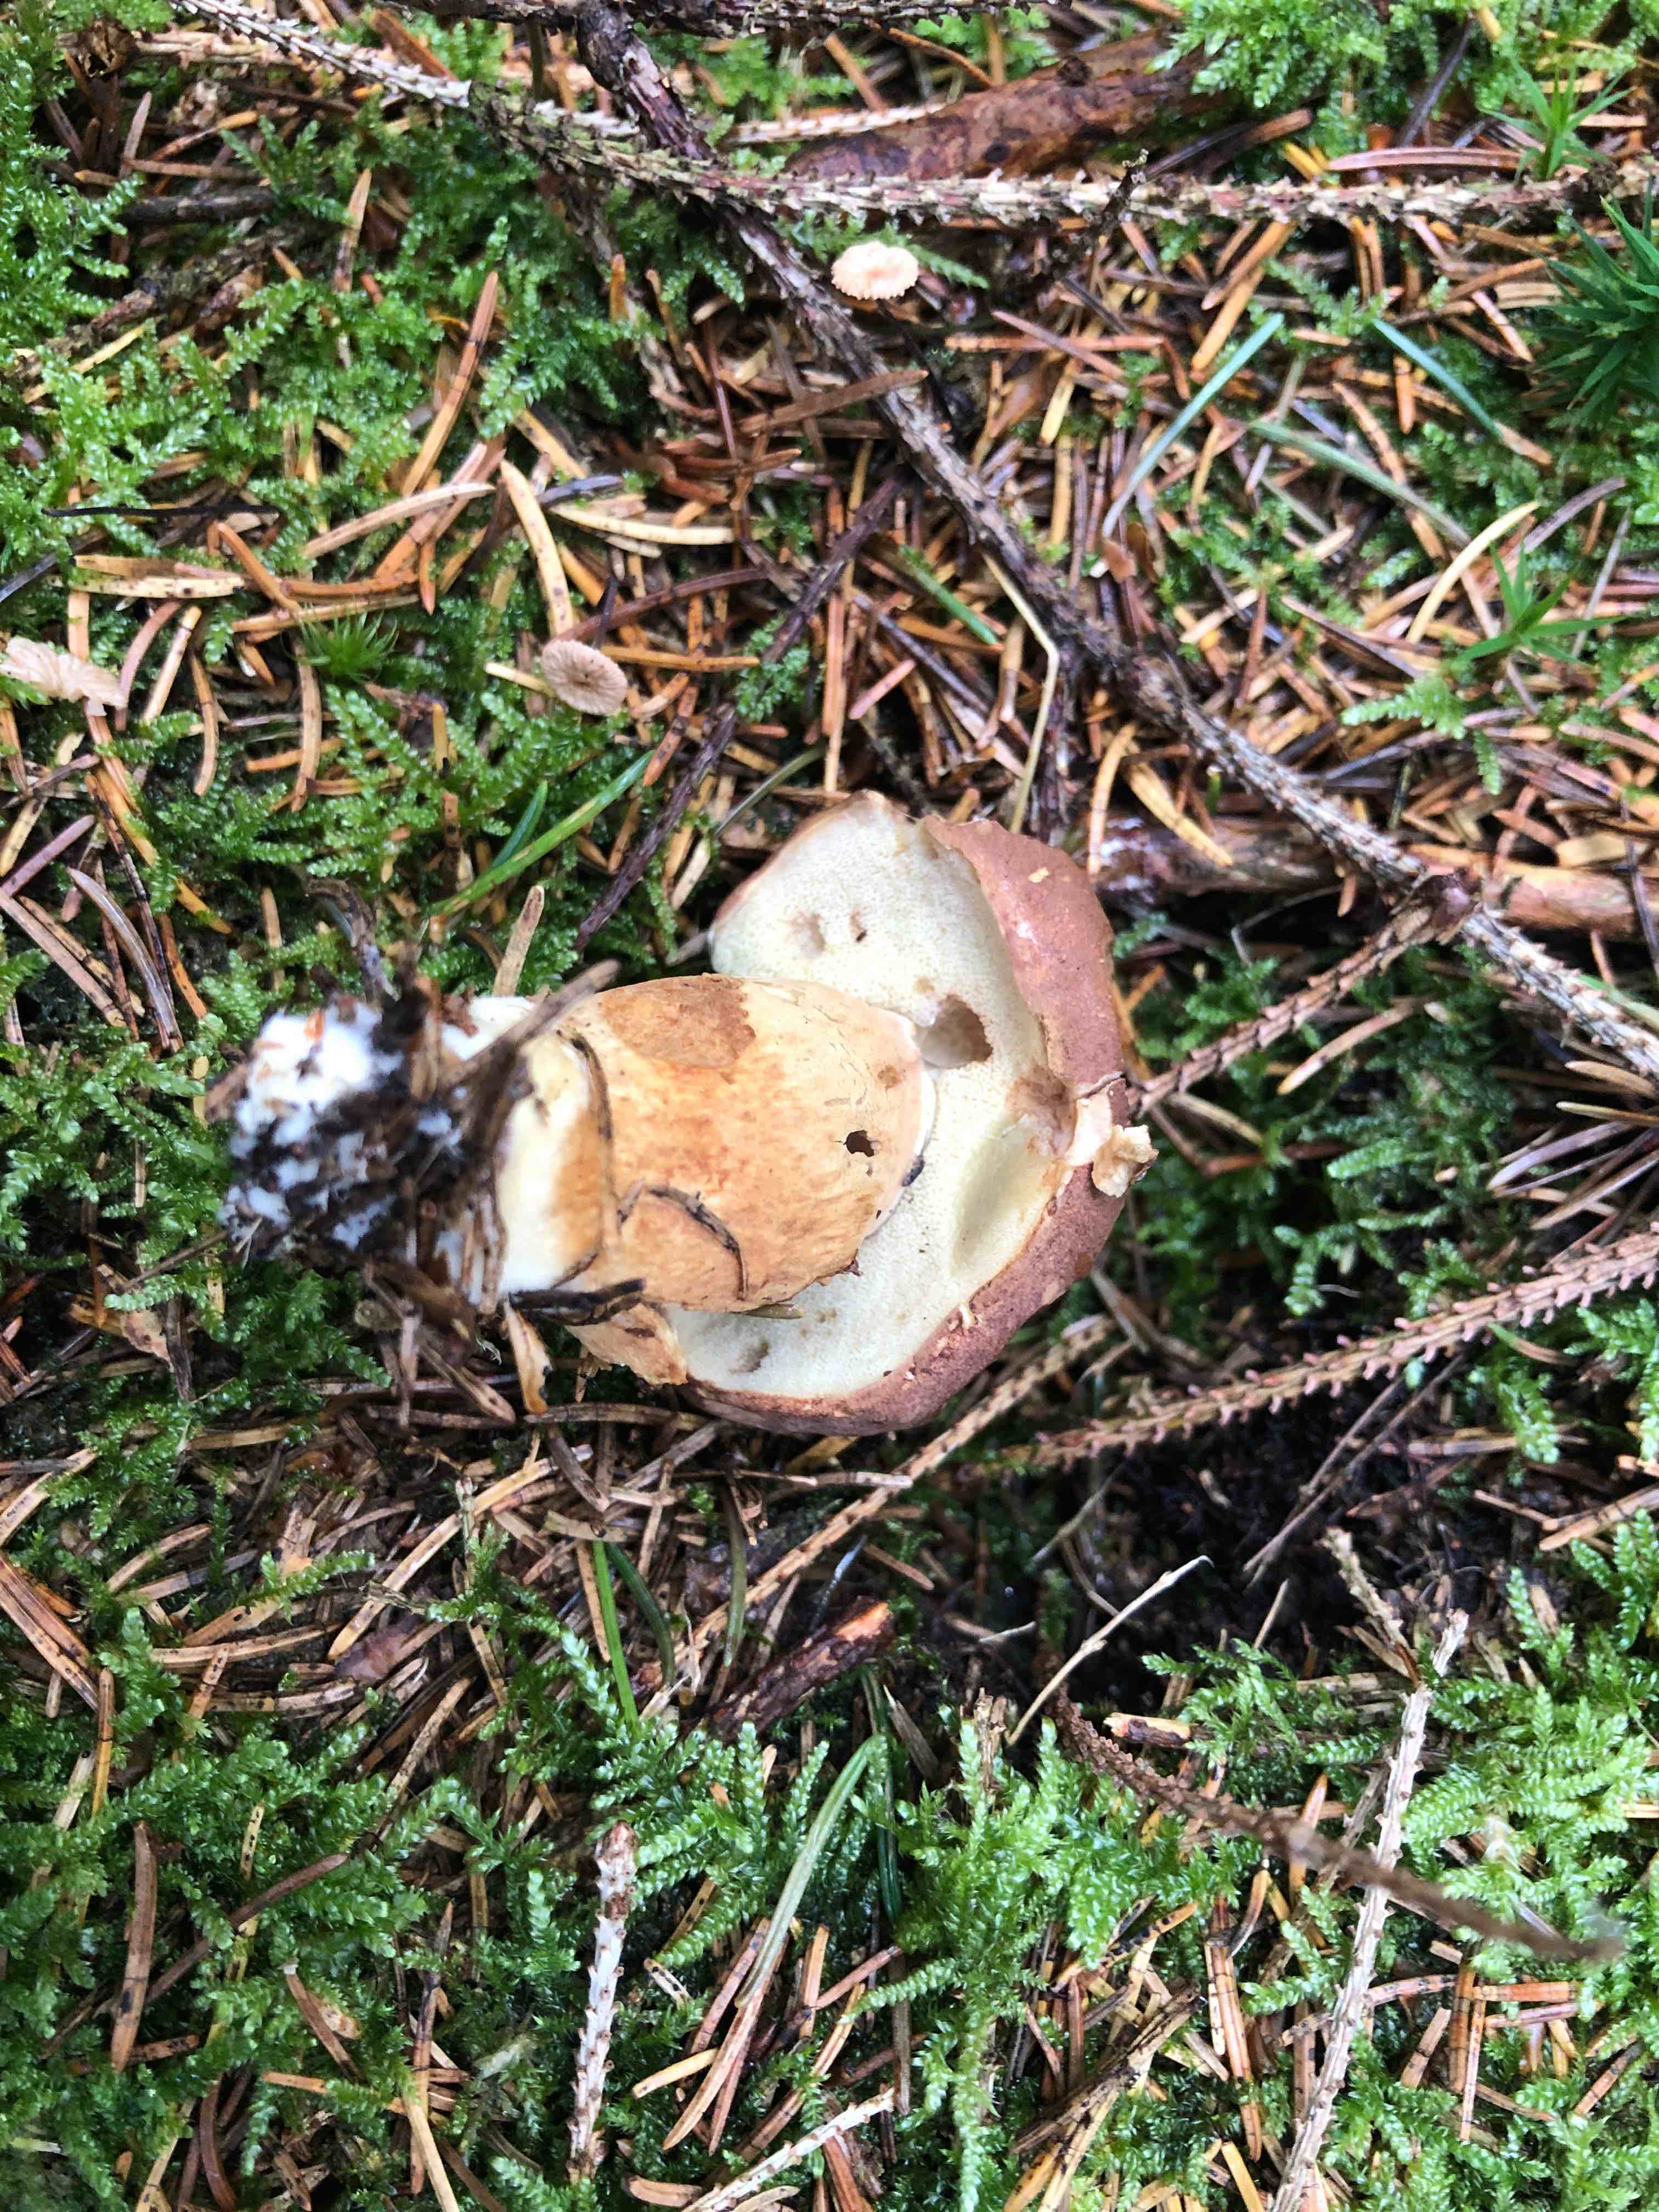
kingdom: Fungi
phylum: Basidiomycota
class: Agaricomycetes
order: Boletales
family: Boletaceae
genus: Imleria
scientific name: Imleria badia
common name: brunstokket rørhat
